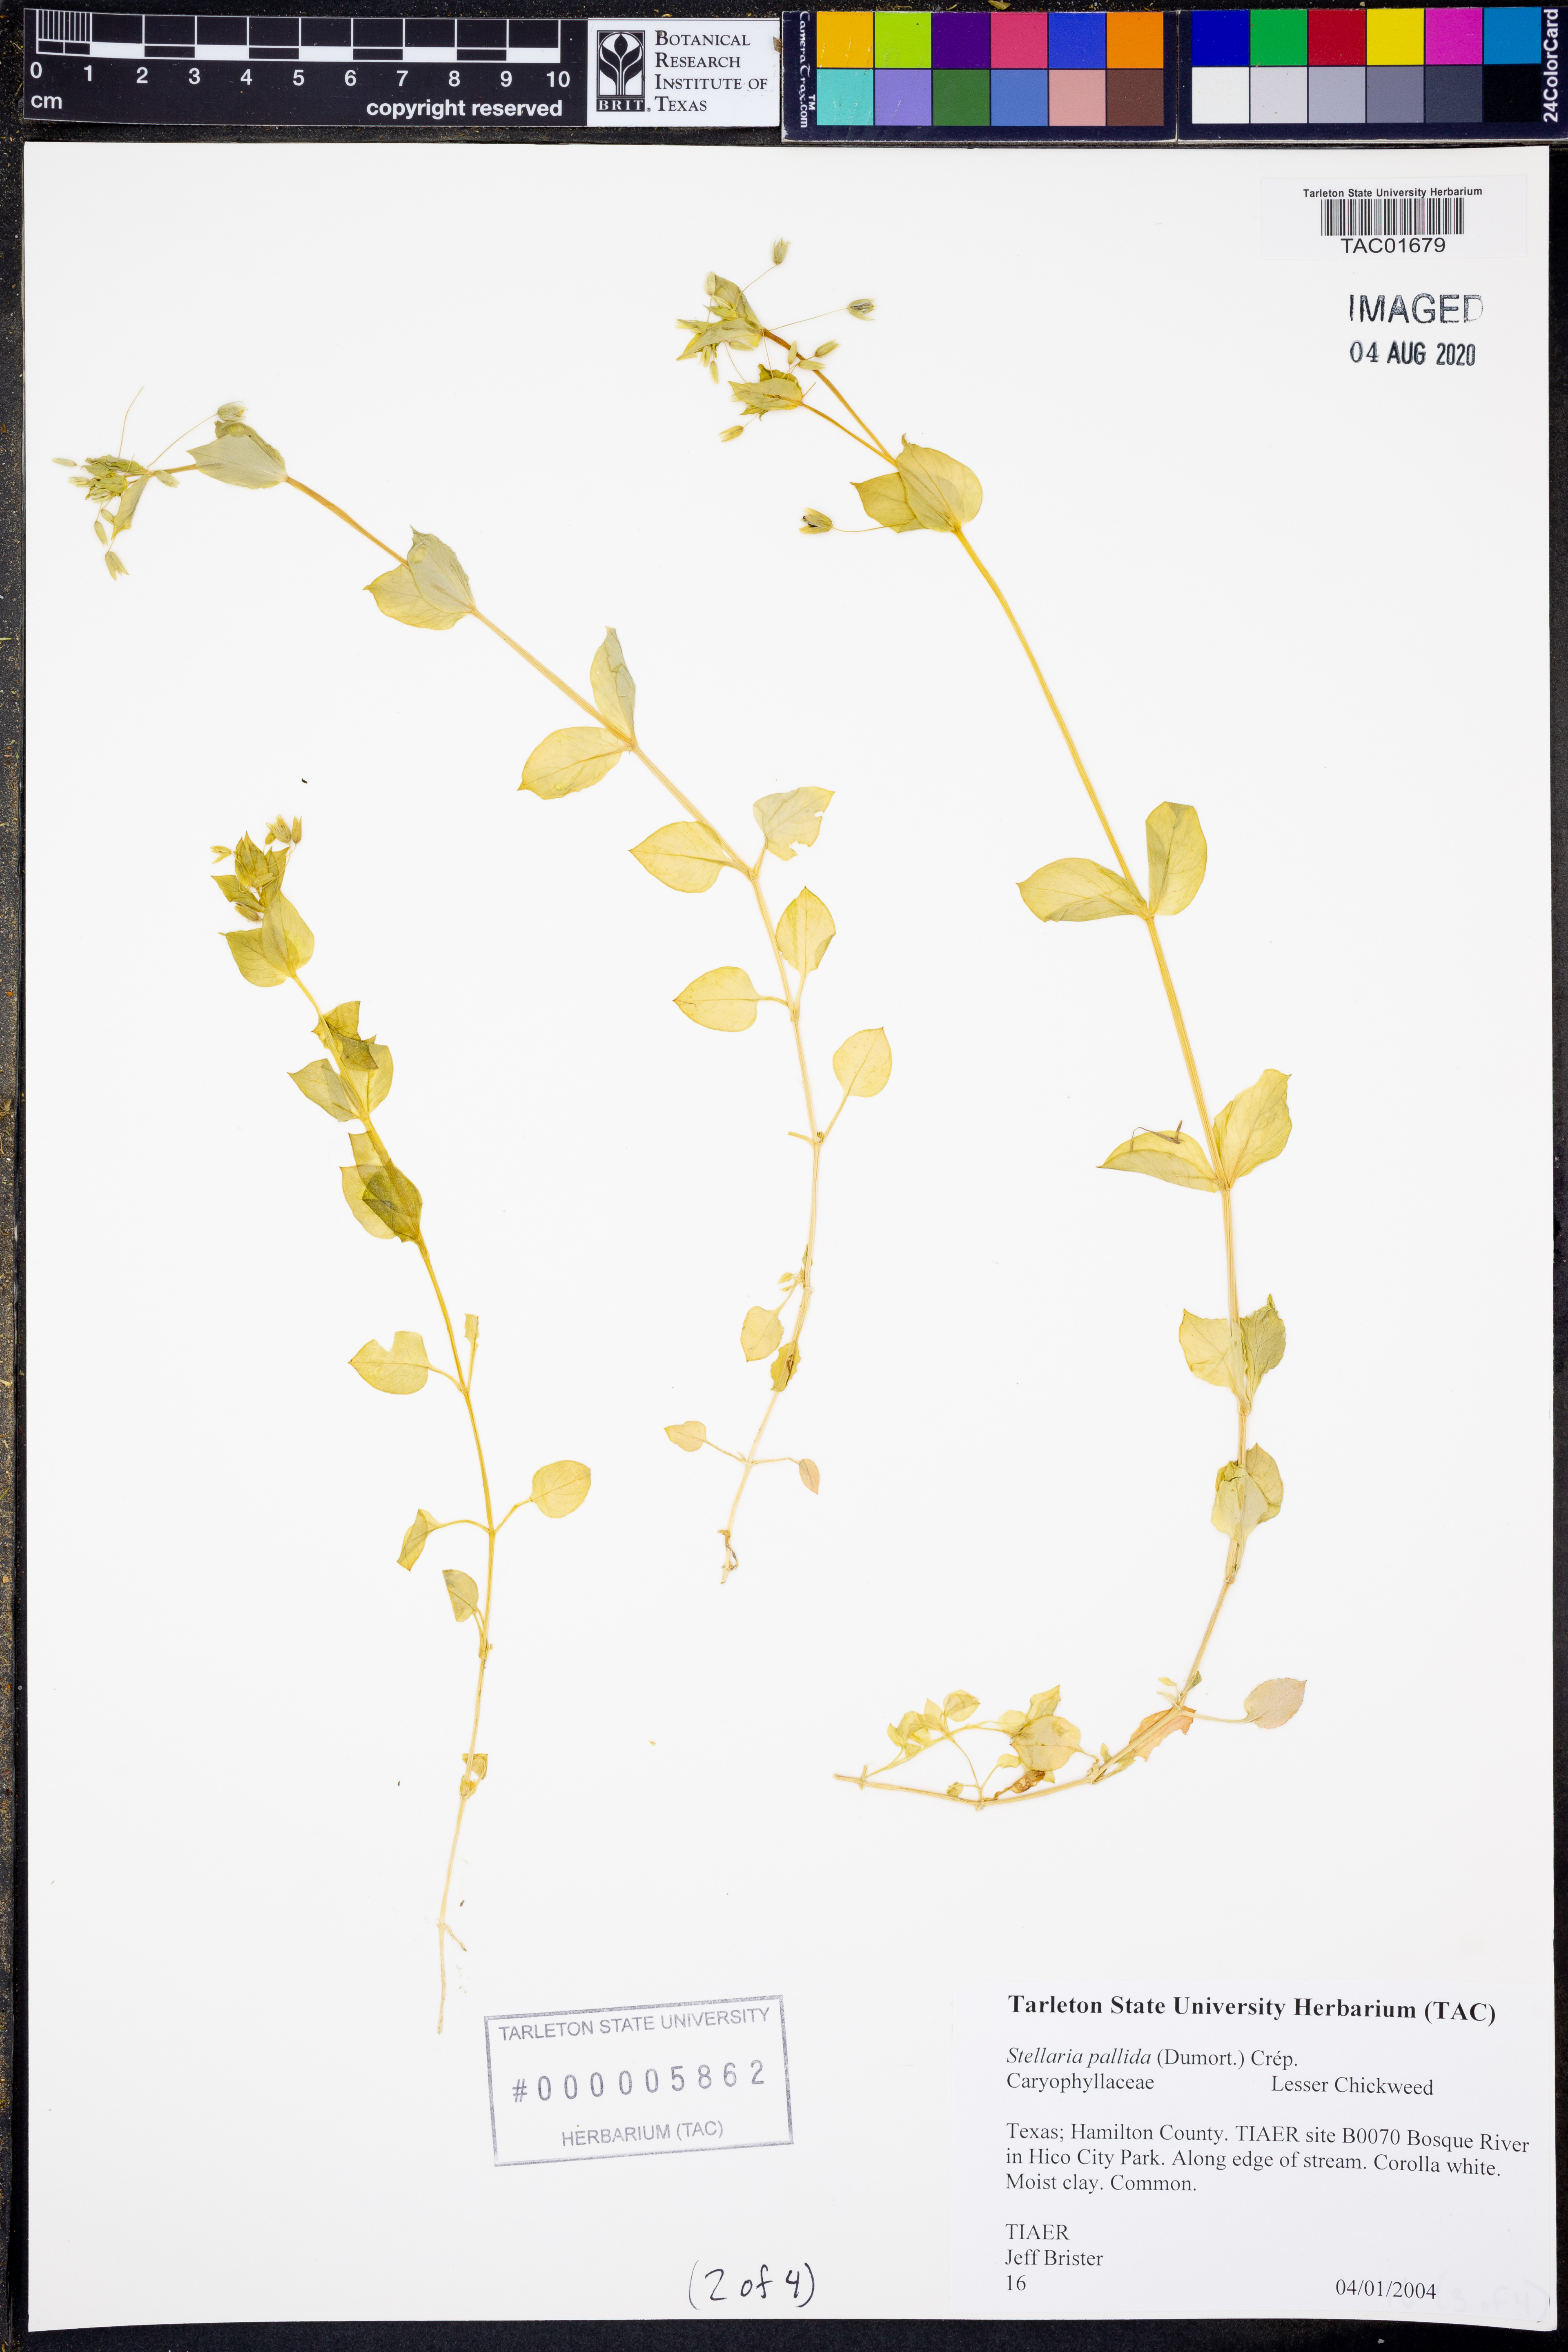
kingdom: Plantae
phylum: Tracheophyta
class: Magnoliopsida
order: Caryophyllales
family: Caryophyllaceae
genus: Stellaria
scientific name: Stellaria apetala
